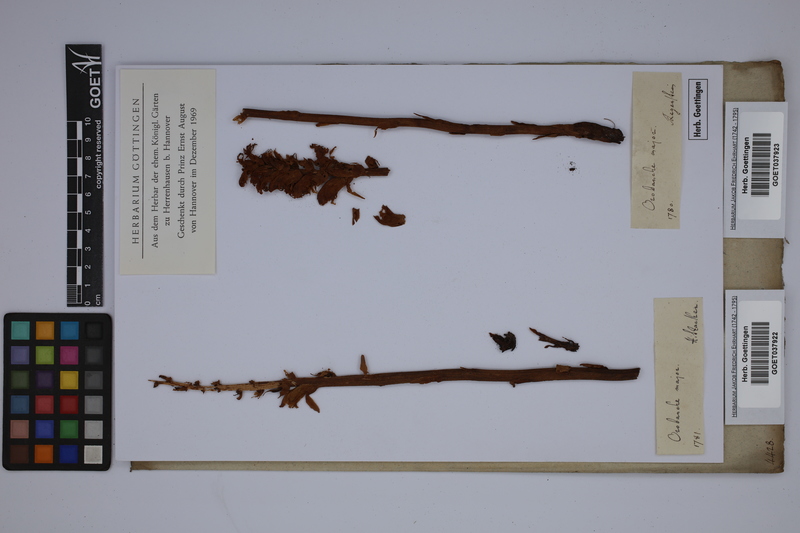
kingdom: Plantae
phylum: Tracheophyta
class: Magnoliopsida
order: Lamiales
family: Orobanchaceae
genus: Orobanche
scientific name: Orobanche rapum-genistae
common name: Greater broomrape
